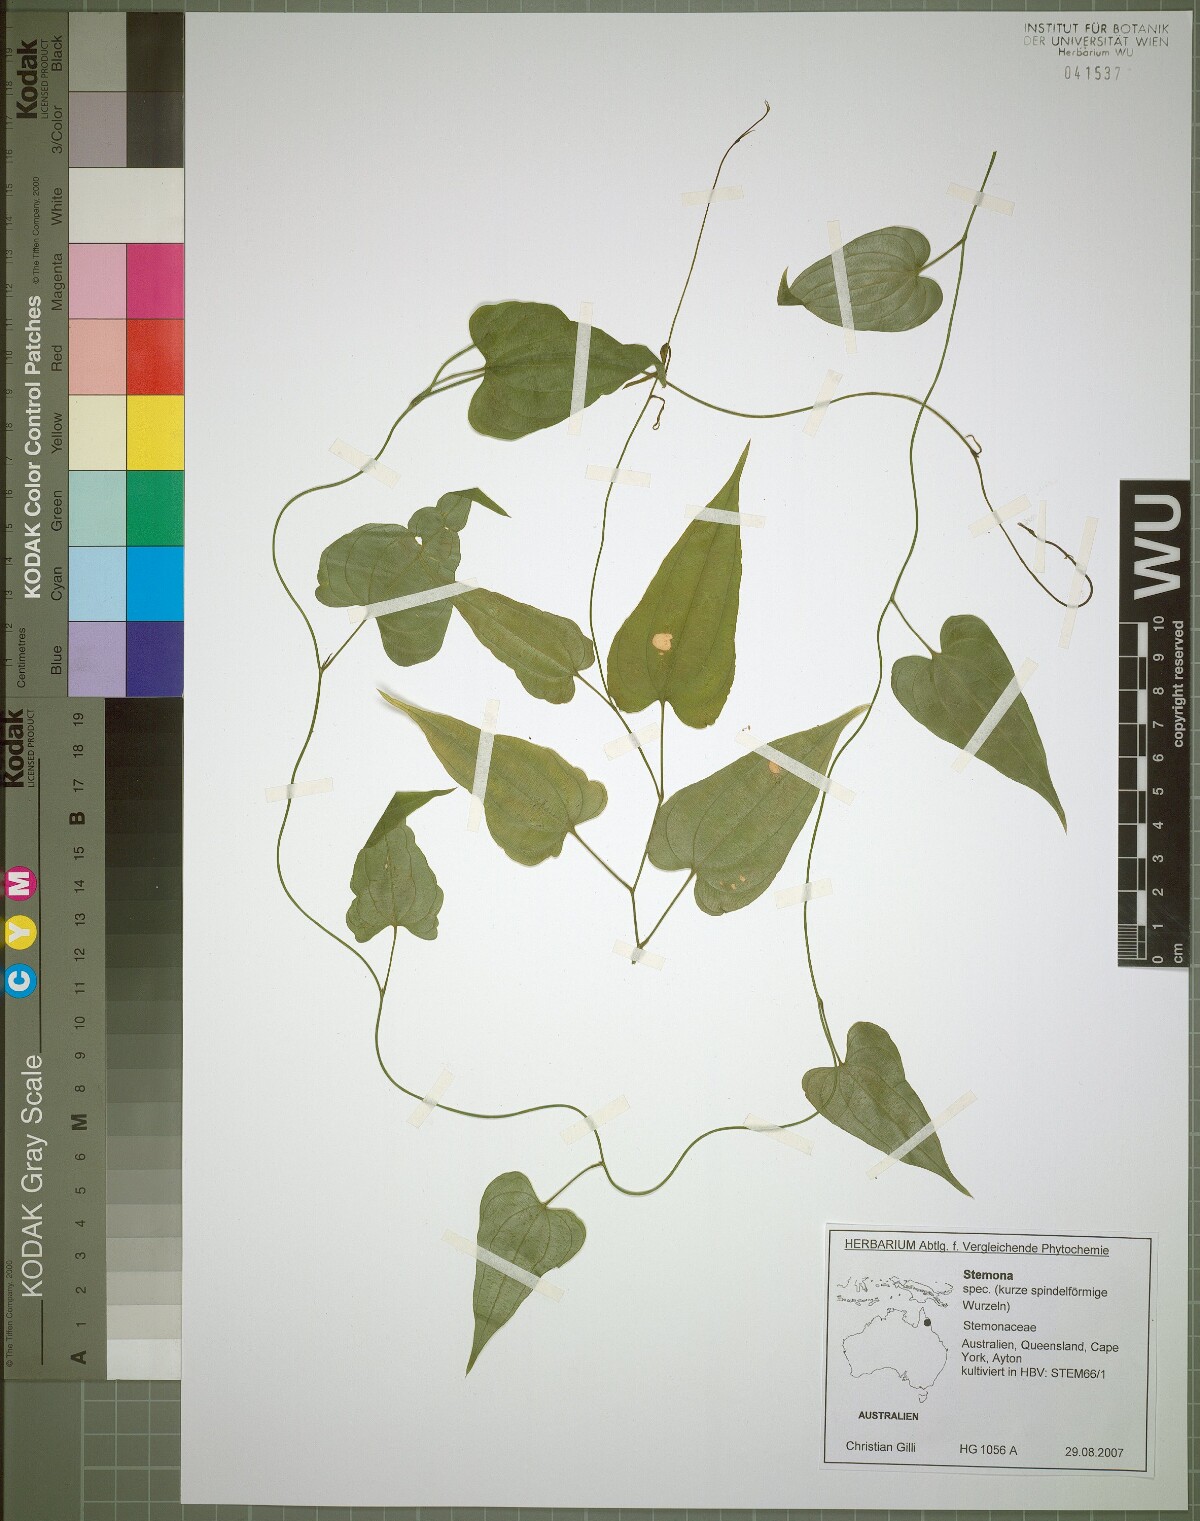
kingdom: Plantae
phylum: Tracheophyta
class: Liliopsida
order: Pandanales
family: Stemonaceae
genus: Stemona
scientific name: Stemona lucida
